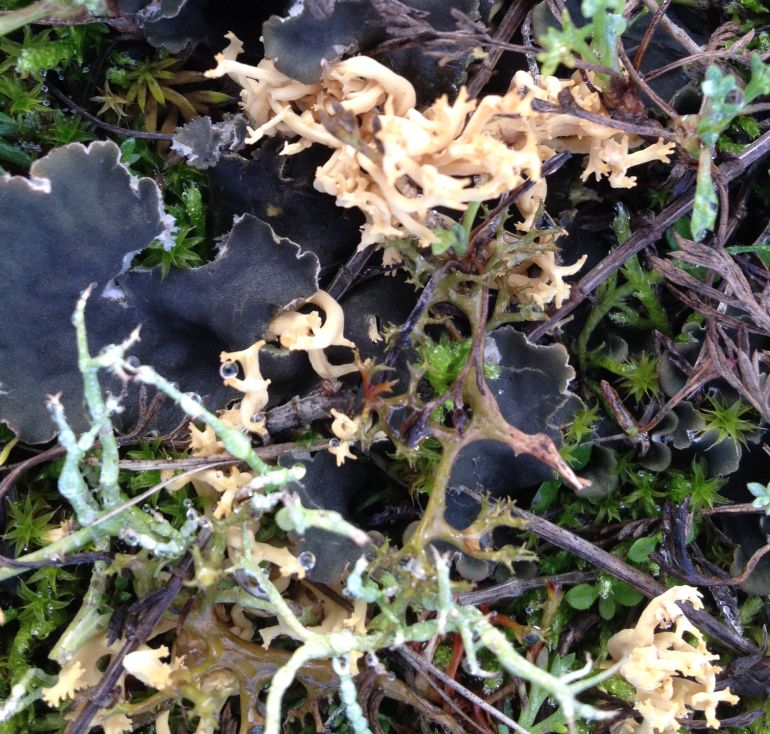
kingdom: Fungi
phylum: Basidiomycota
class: Agaricomycetes
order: Agaricales
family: Clavariaceae
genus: Clavulinopsis
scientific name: Clavulinopsis corniculata
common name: eng-køllesvamp
